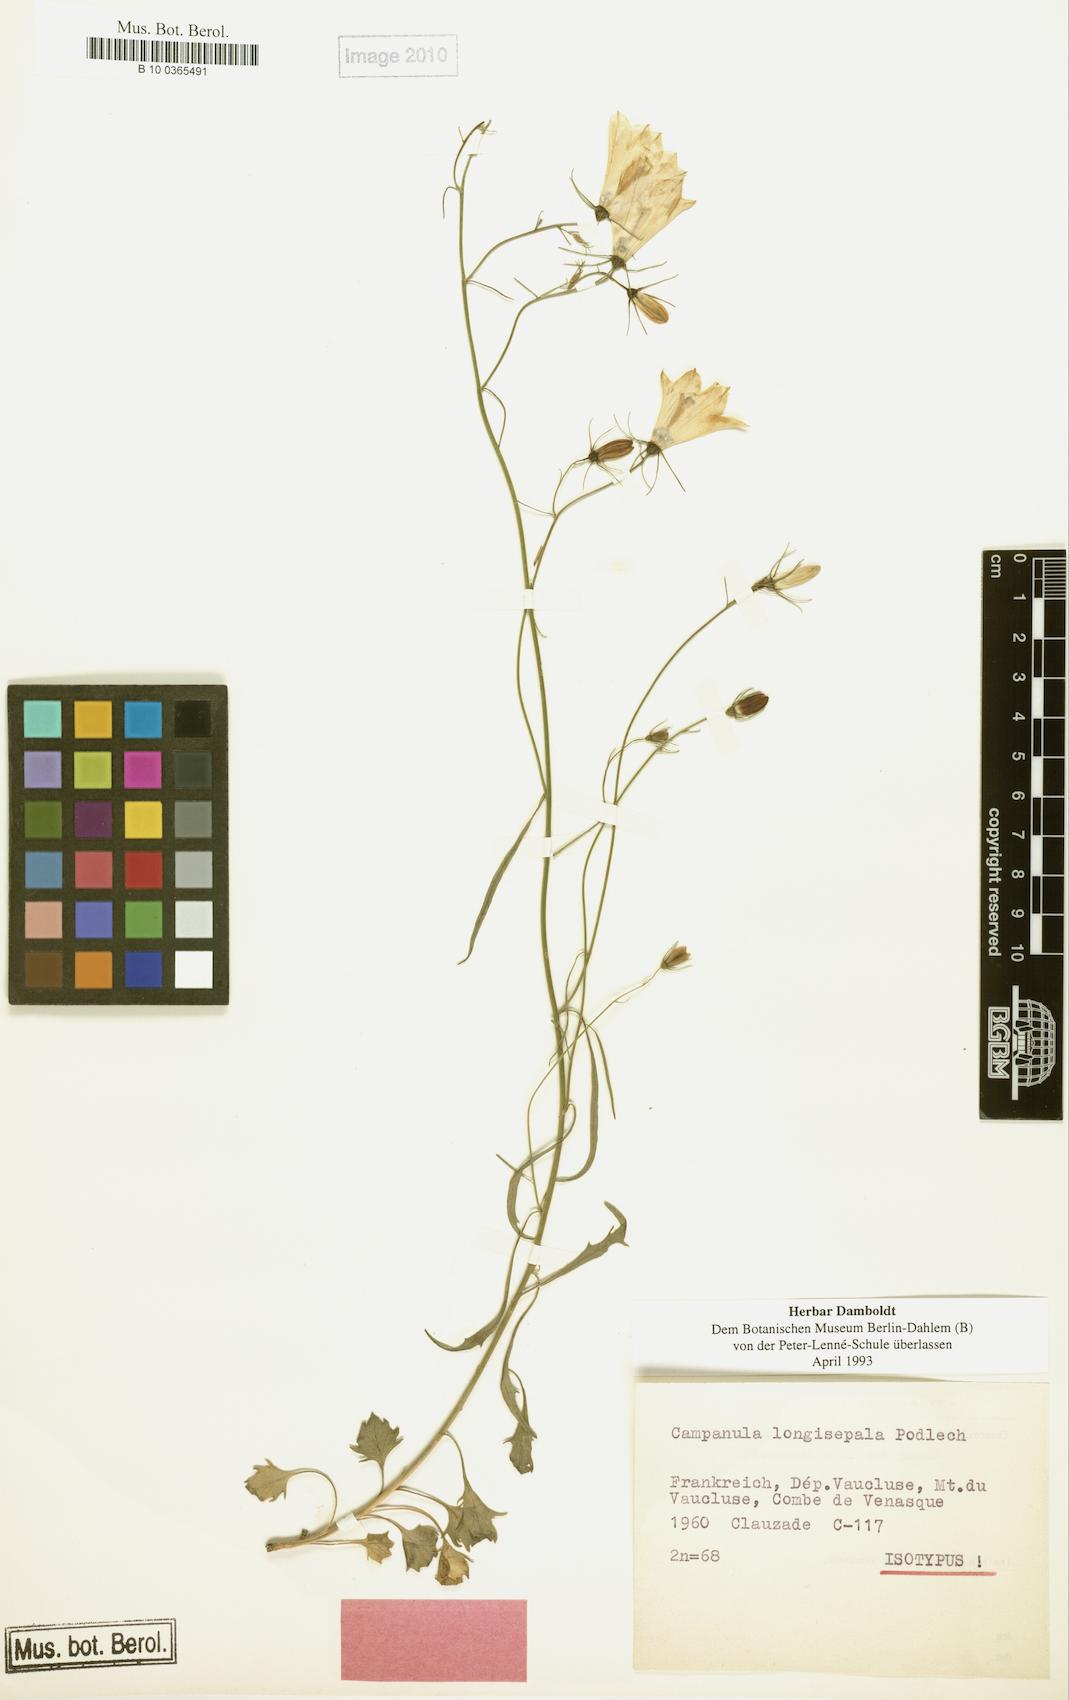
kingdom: Plantae
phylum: Tracheophyta
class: Magnoliopsida
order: Asterales
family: Campanulaceae
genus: Campanula
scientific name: Campanula longisepala
